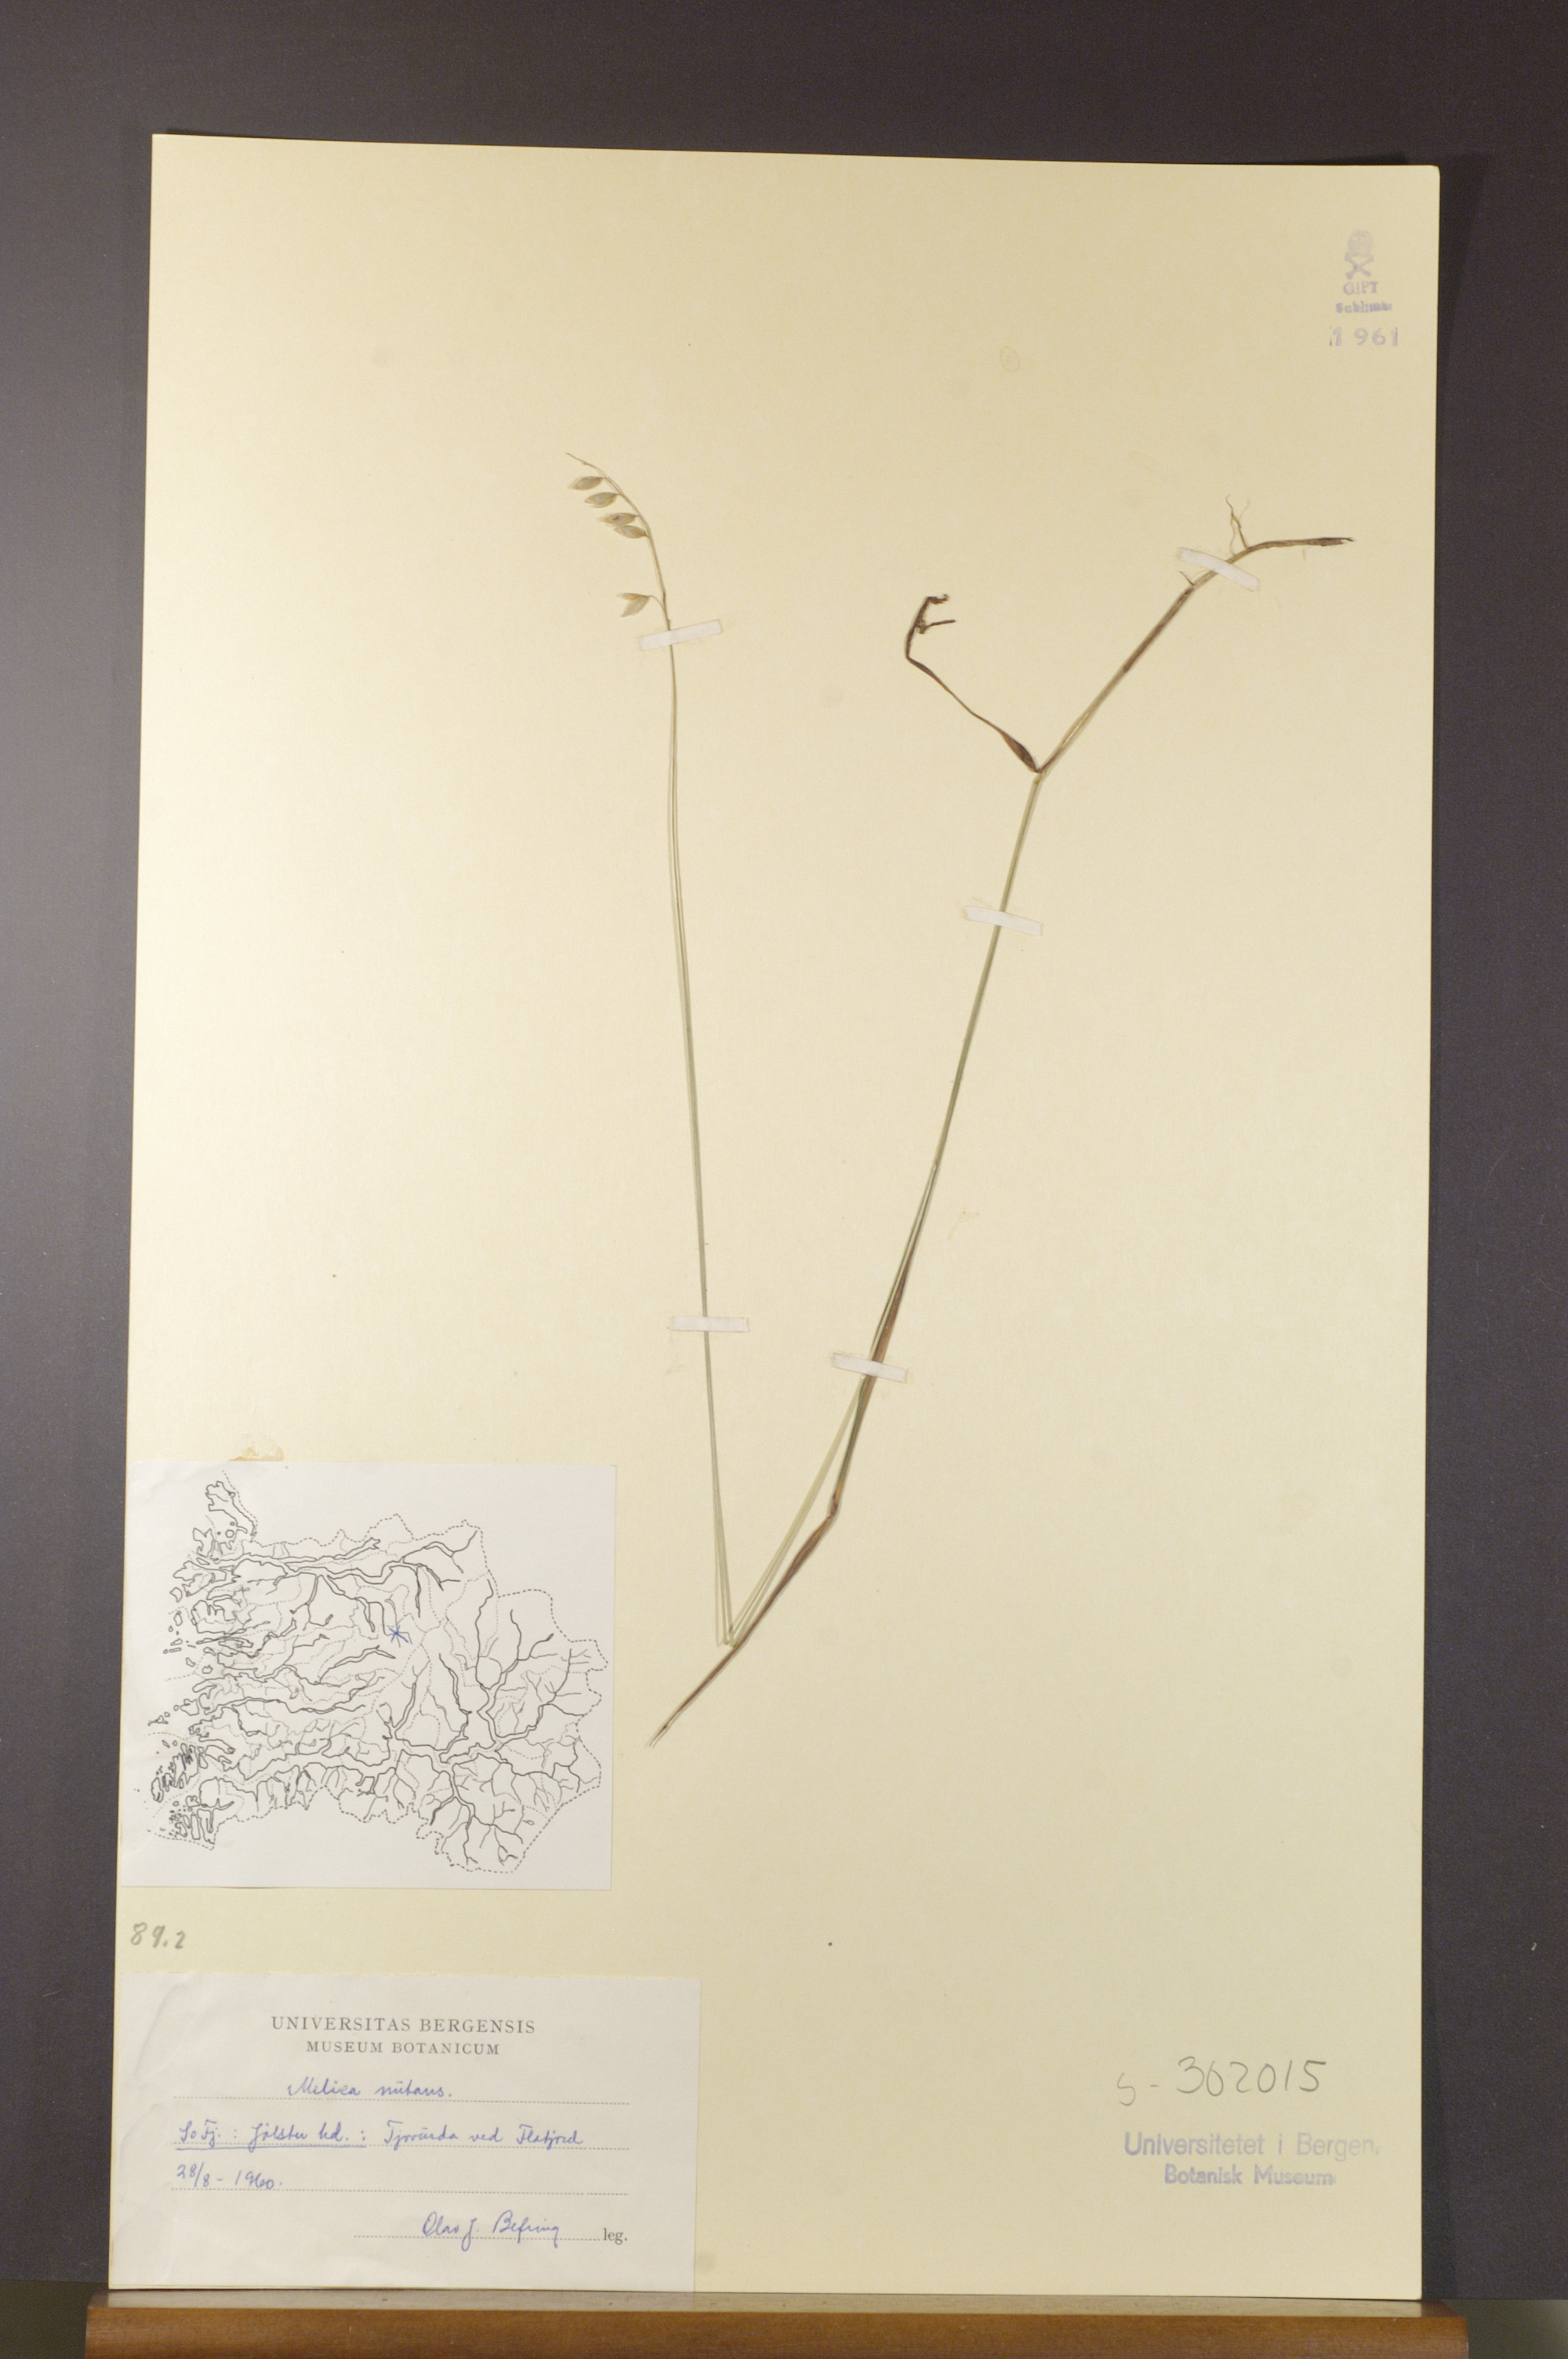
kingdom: Plantae
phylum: Tracheophyta
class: Liliopsida
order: Poales
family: Poaceae
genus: Melica
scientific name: Melica nutans
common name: Mountain melick
